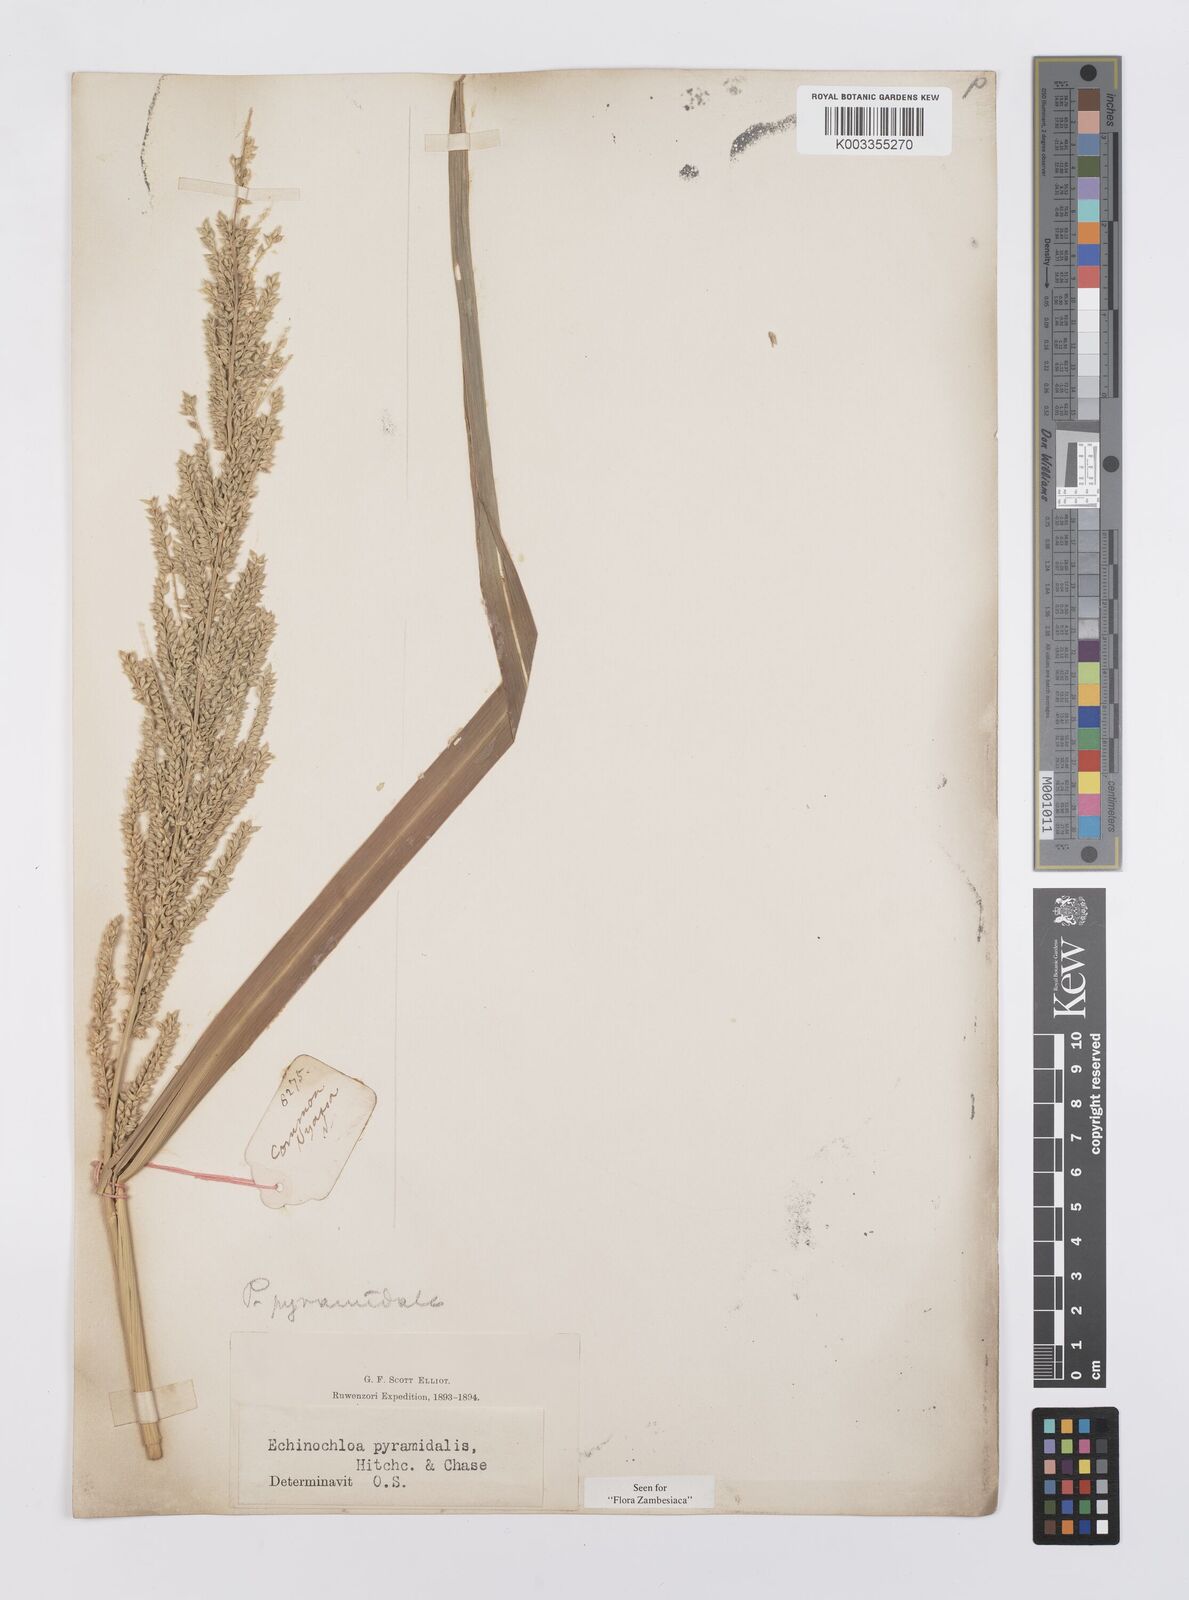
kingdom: Plantae
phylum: Tracheophyta
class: Liliopsida
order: Poales
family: Poaceae
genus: Echinochloa
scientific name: Echinochloa pyramidalis
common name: Antelope grass
